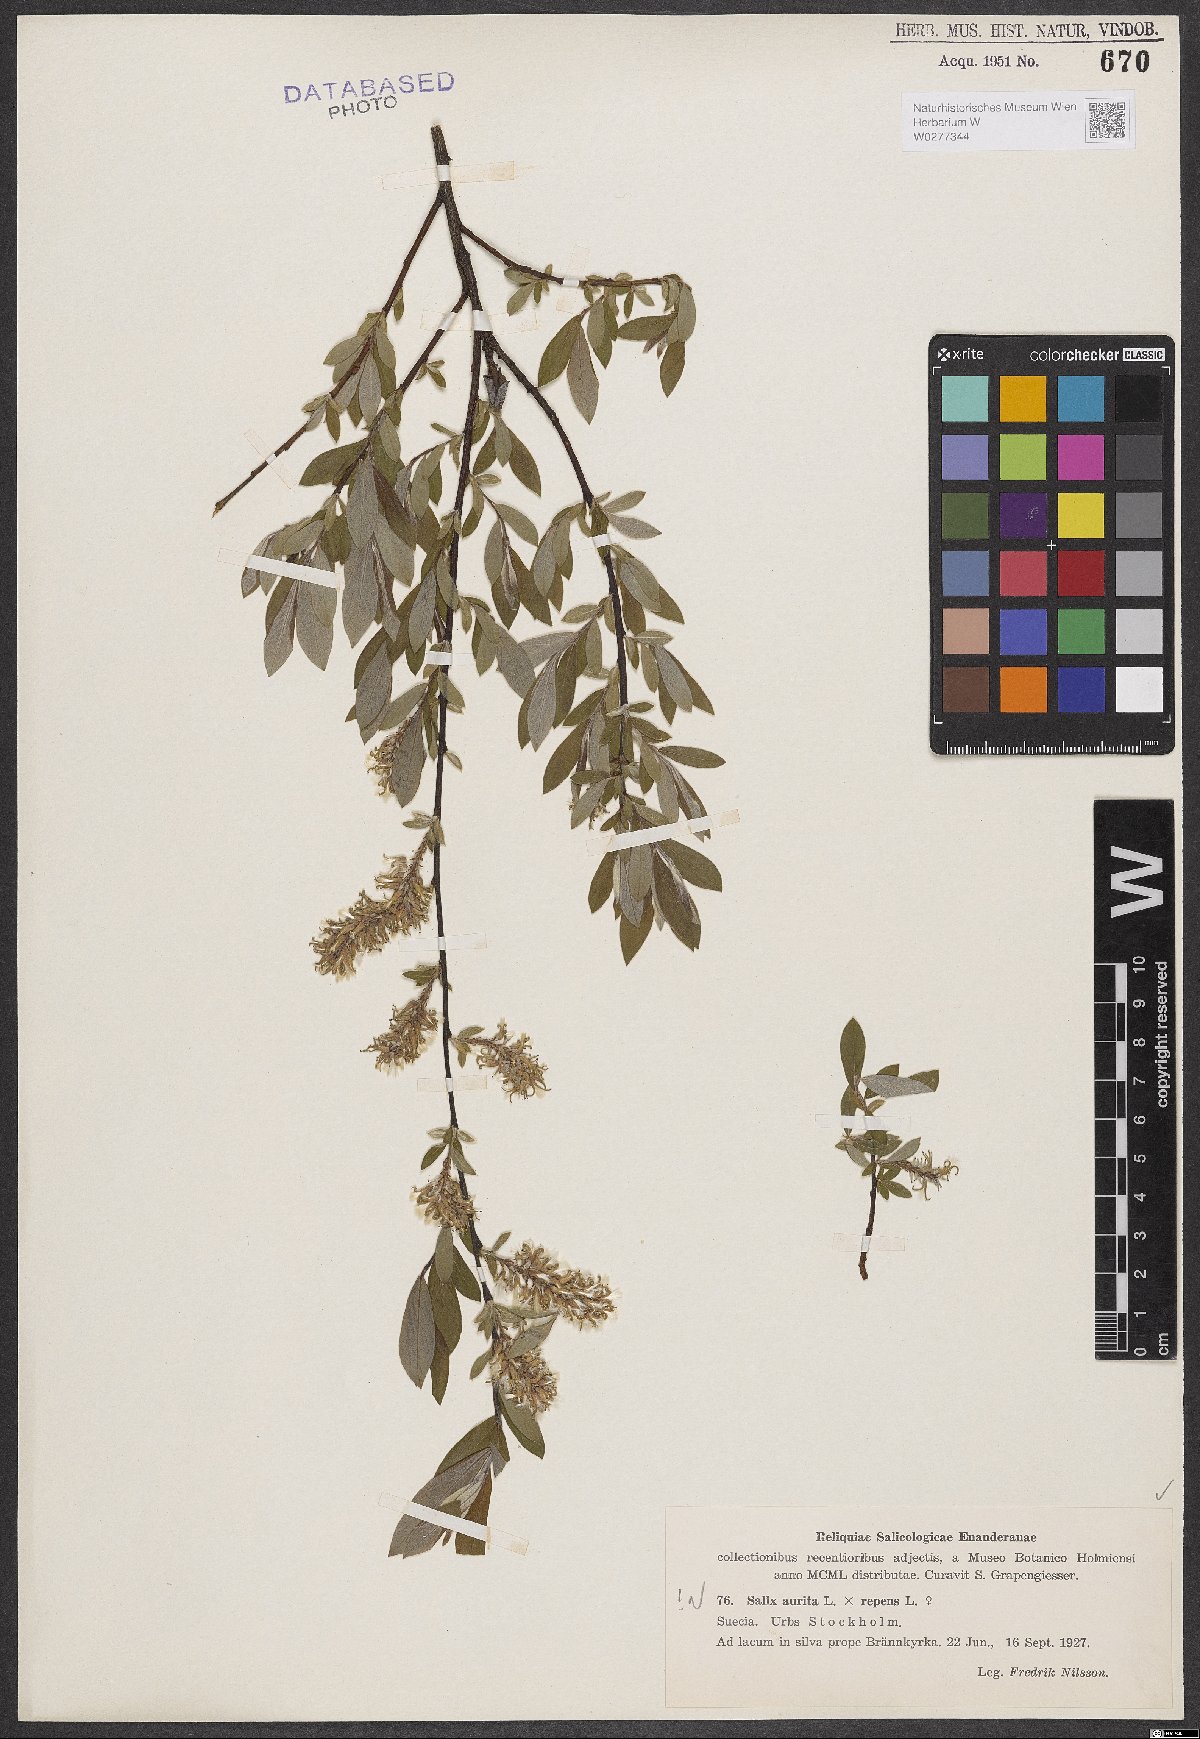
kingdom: Plantae
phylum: Tracheophyta
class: Magnoliopsida
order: Malpighiales
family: Salicaceae
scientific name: Salicaceae
